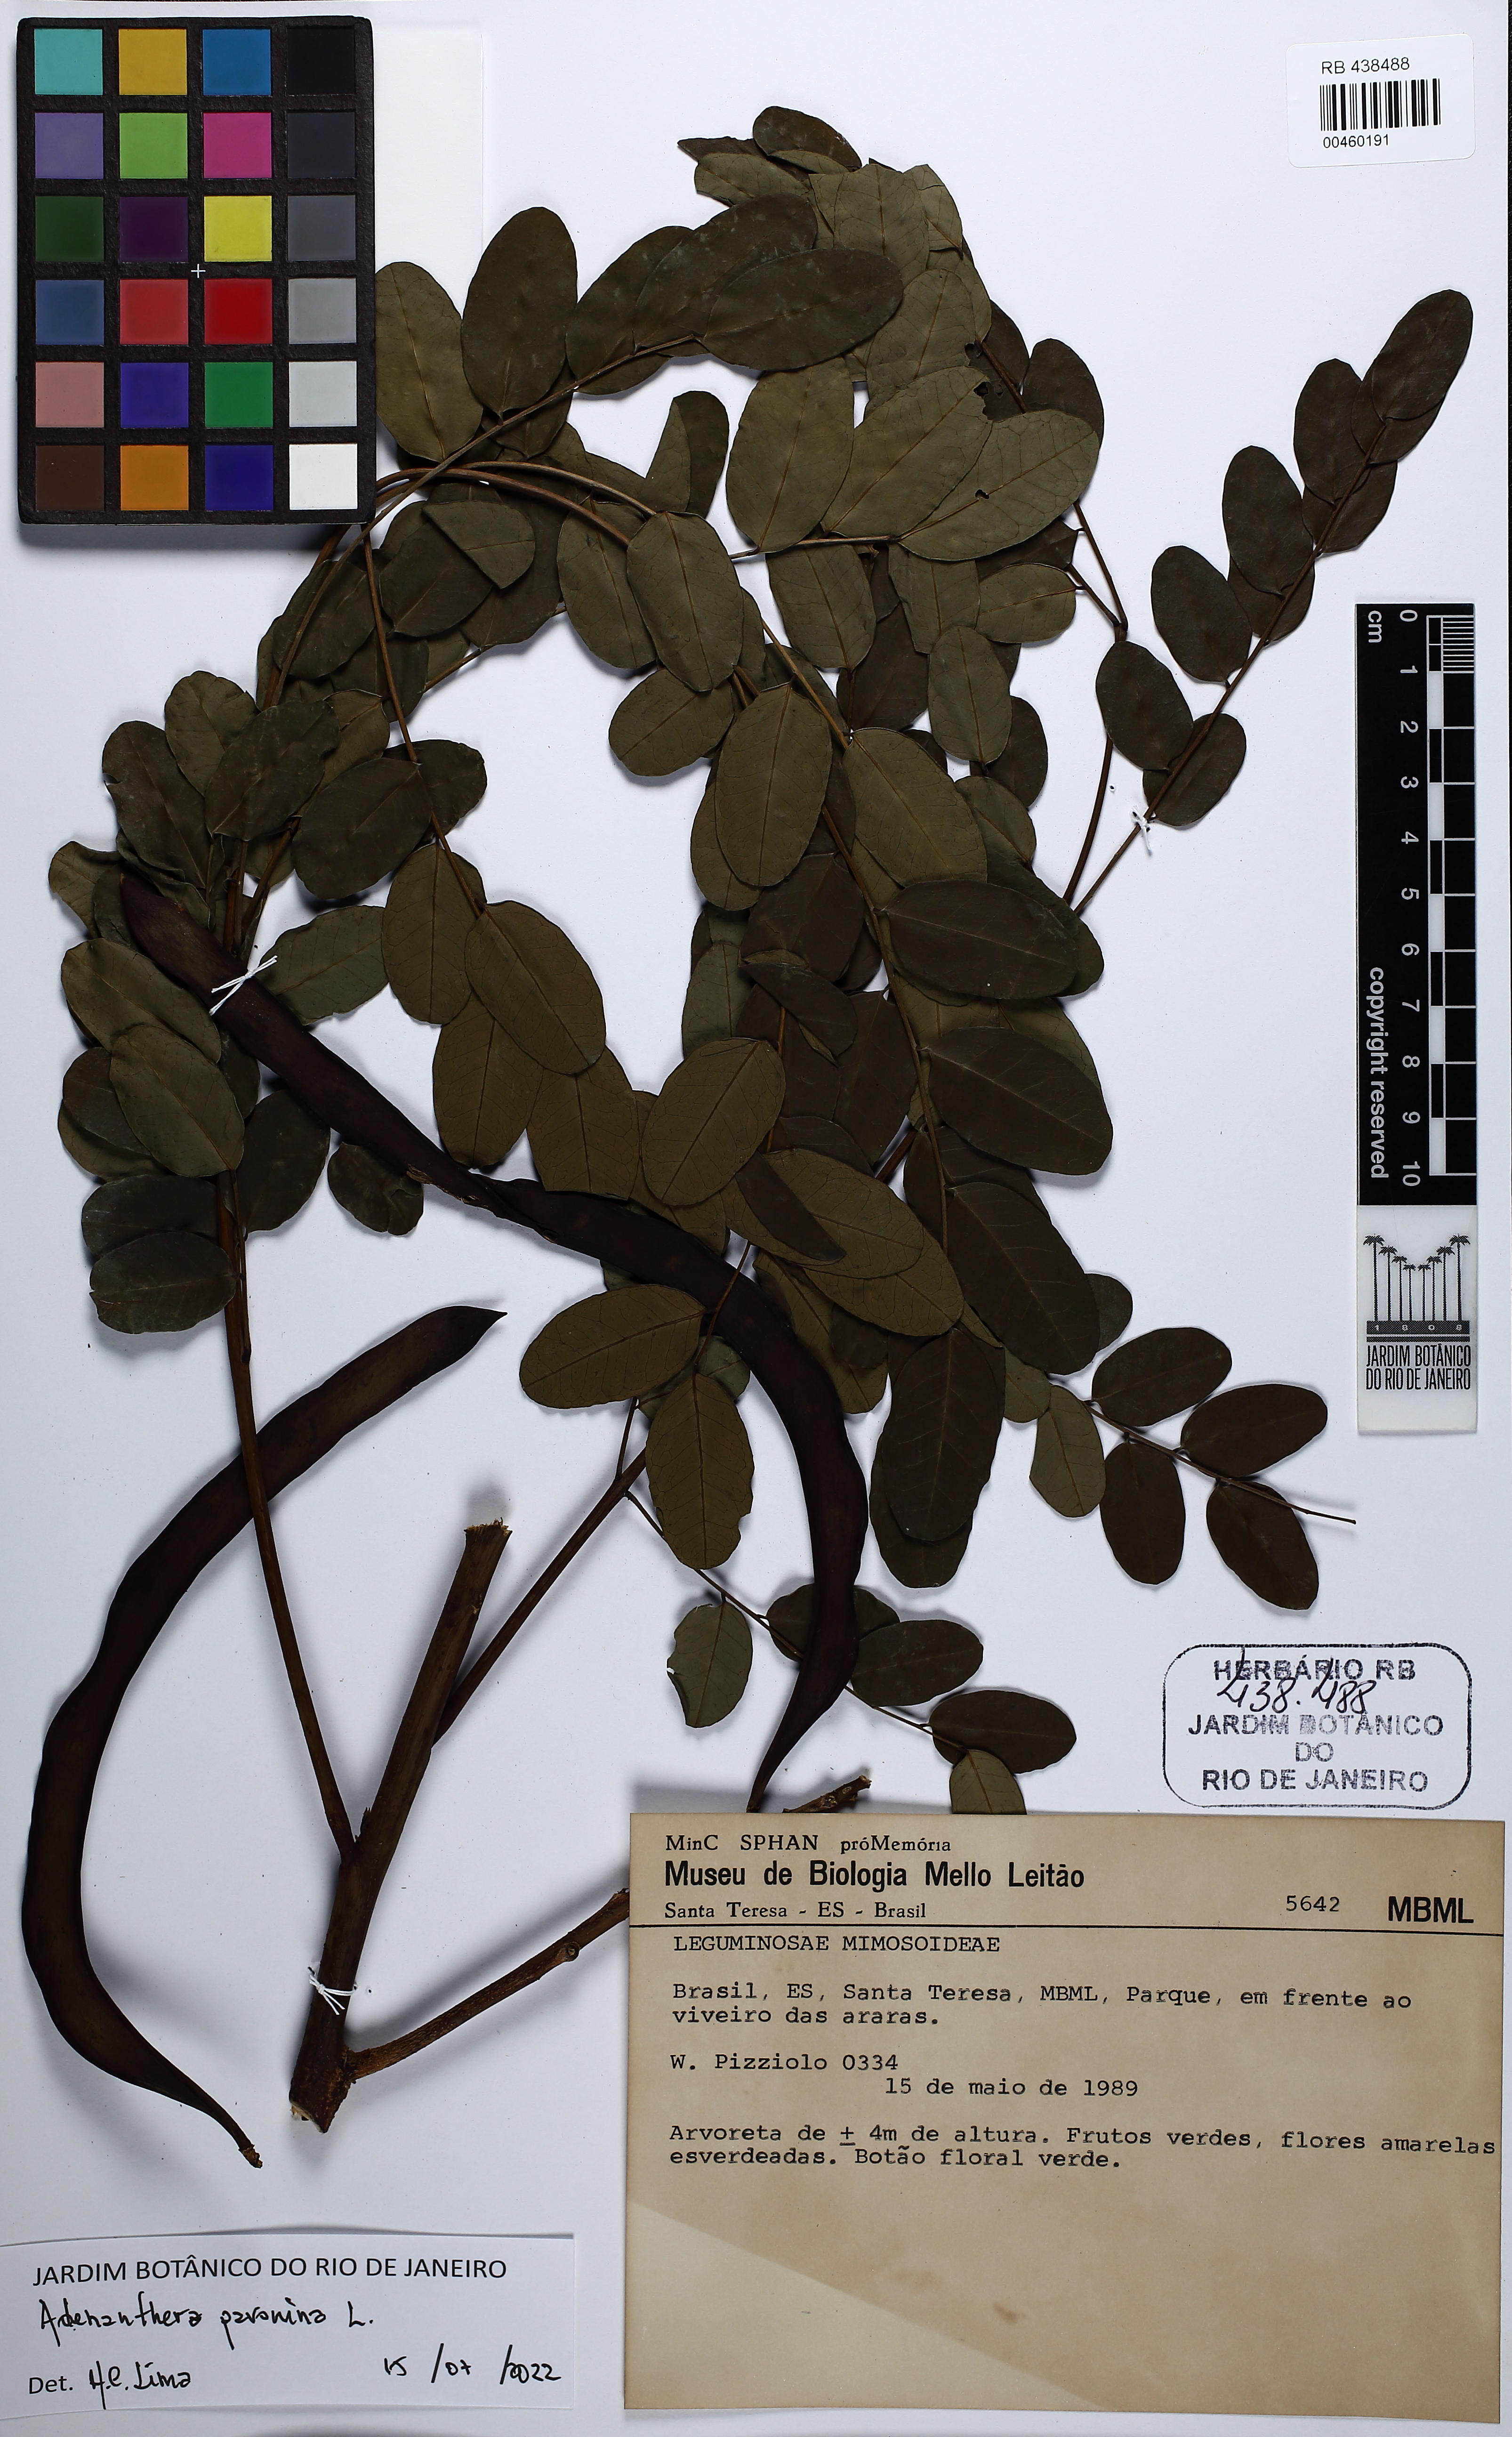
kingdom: Plantae
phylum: Tracheophyta
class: Magnoliopsida
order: Fabales
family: Fabaceae
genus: Adenanthera
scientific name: Adenanthera pavonina
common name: Red beadtree
